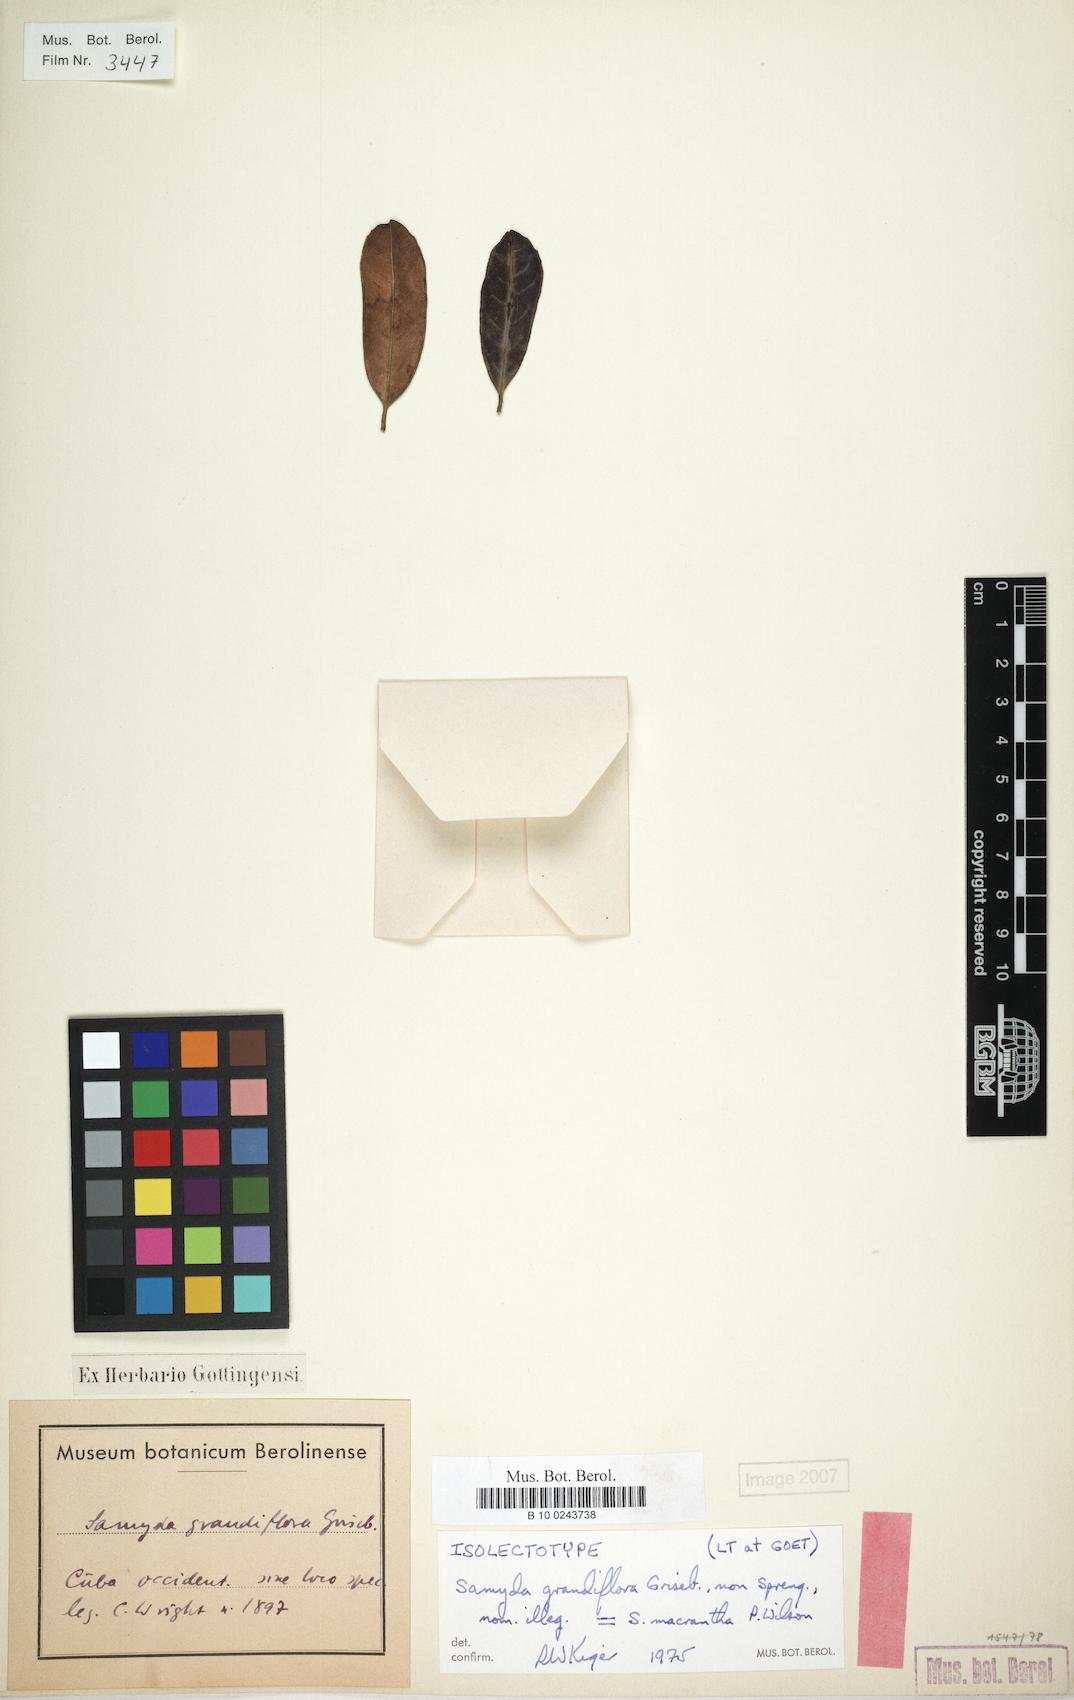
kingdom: Plantae
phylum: Tracheophyta
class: Magnoliopsida
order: Malpighiales
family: Salicaceae
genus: Casearia
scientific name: Casearia dolichanthera
